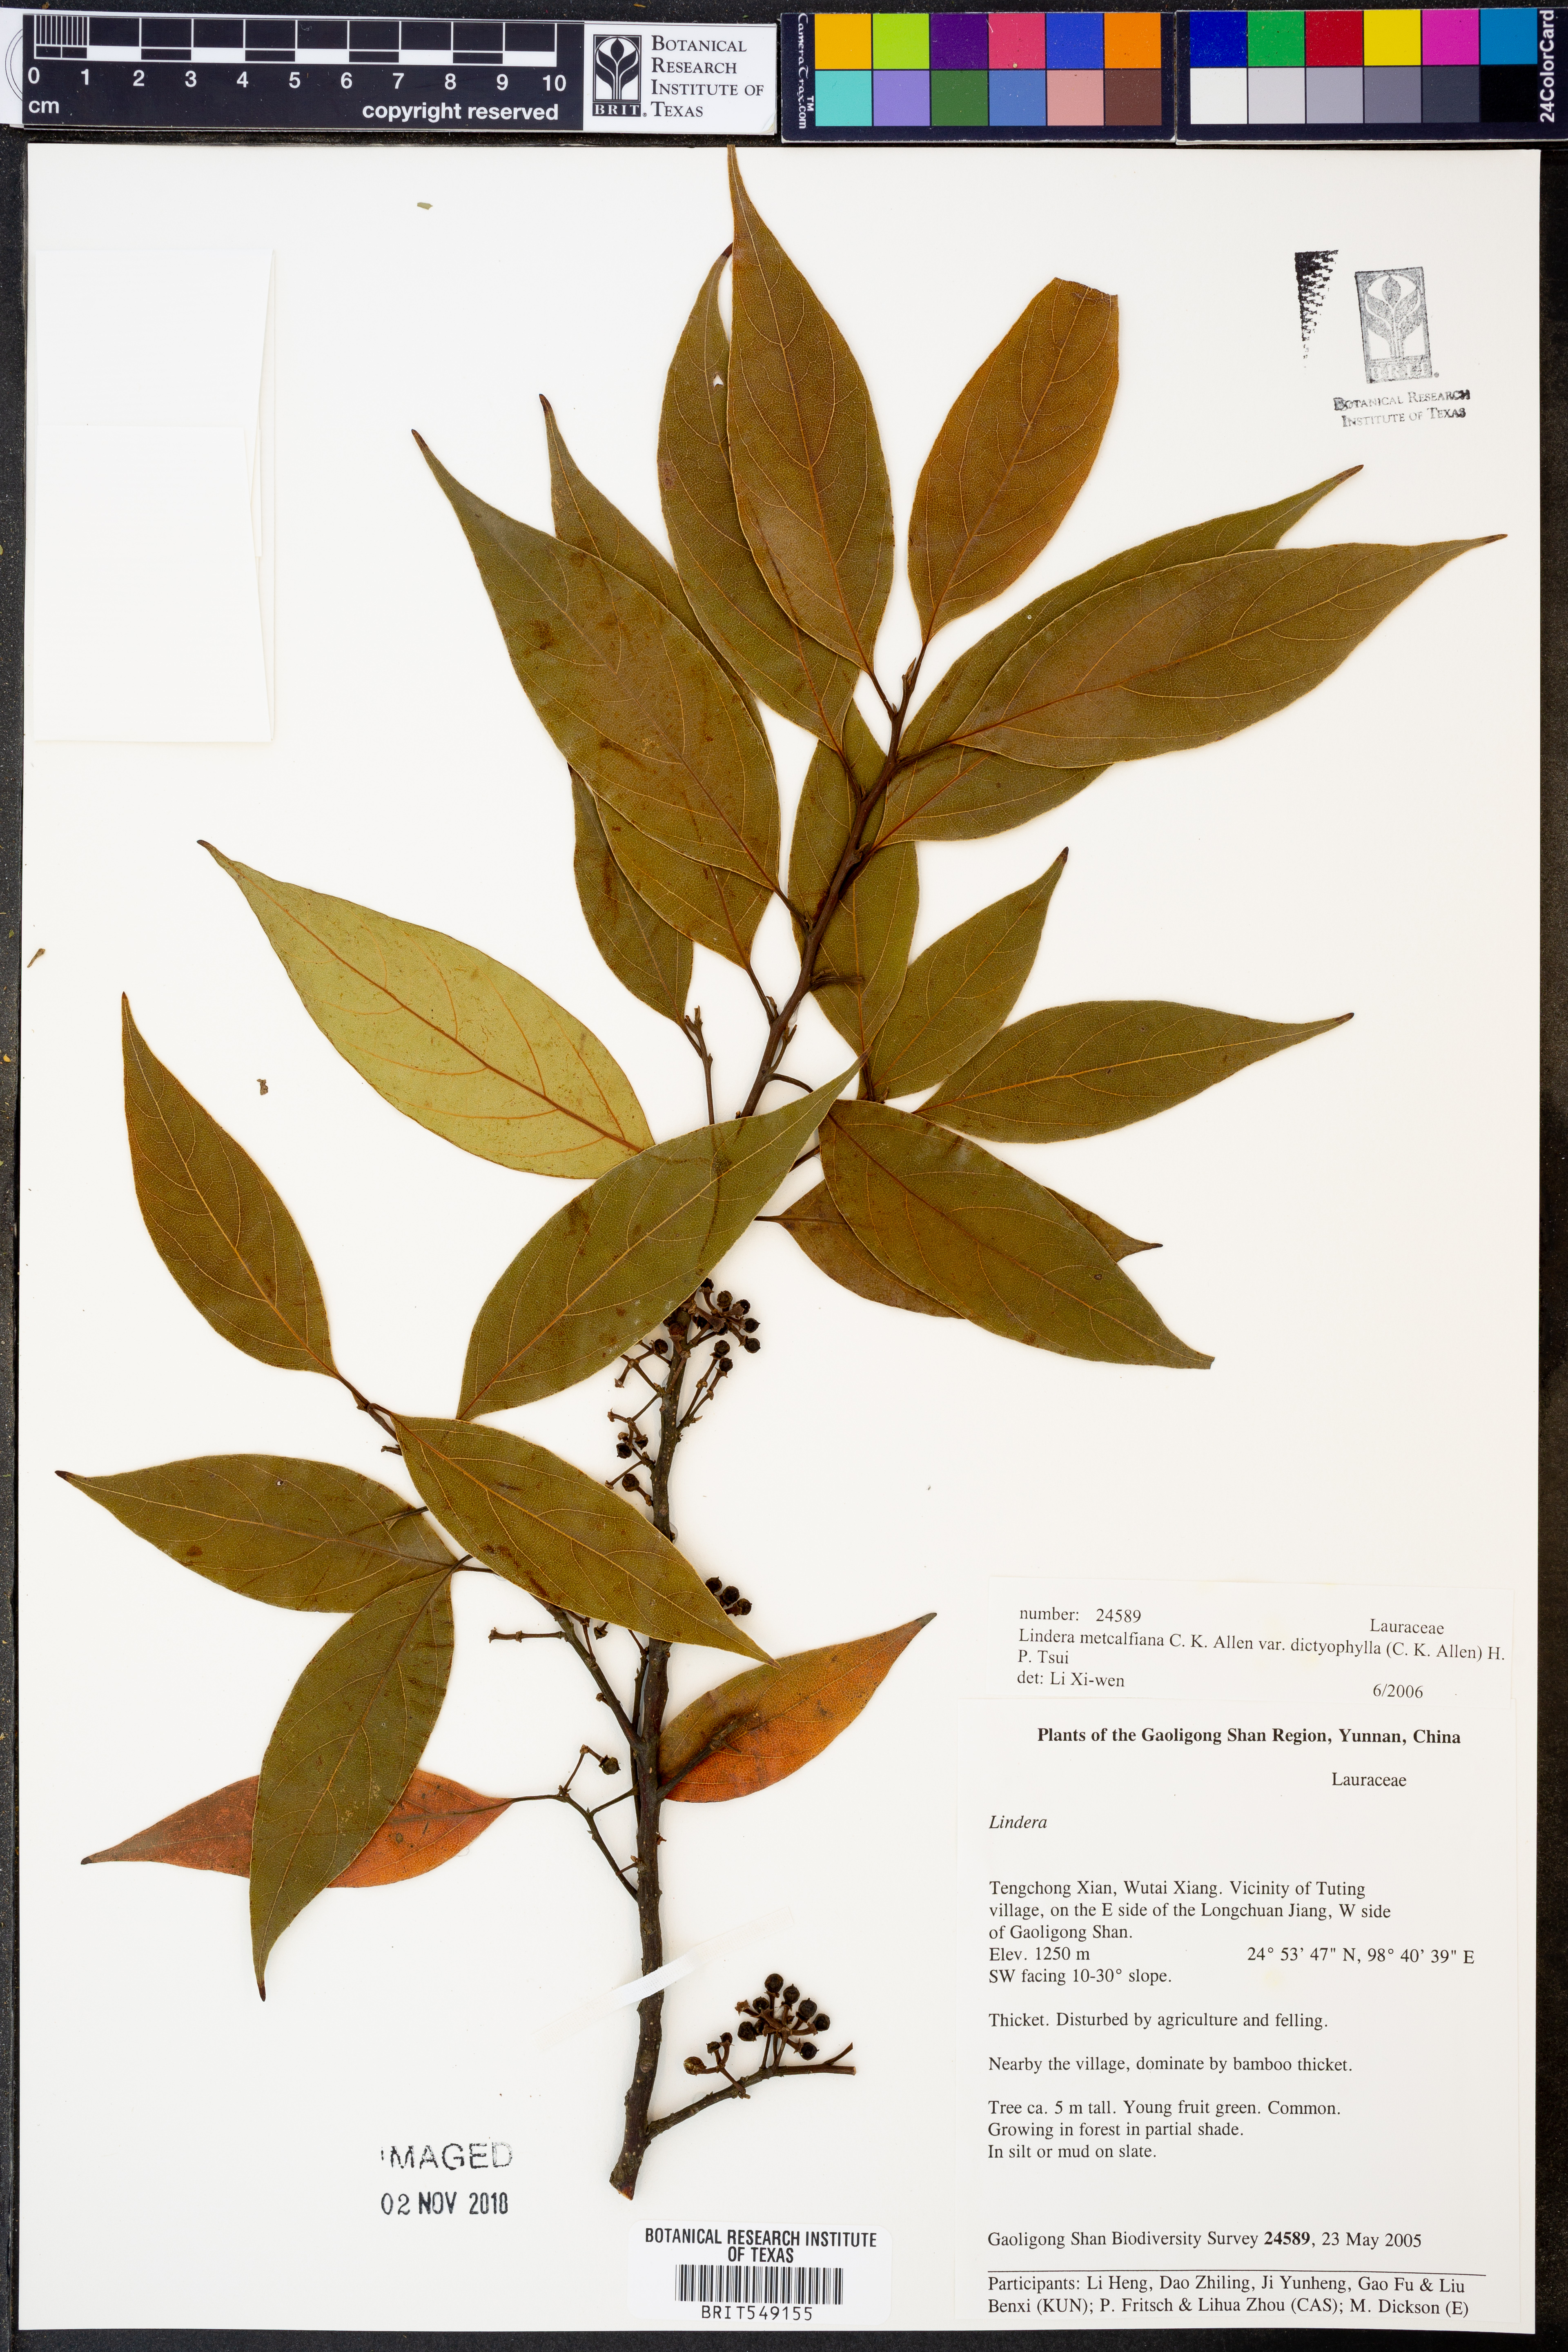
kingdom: Plantae
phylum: Tracheophyta
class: Magnoliopsida
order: Laurales
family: Lauraceae
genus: Lindera
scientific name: Lindera metcalfiana
